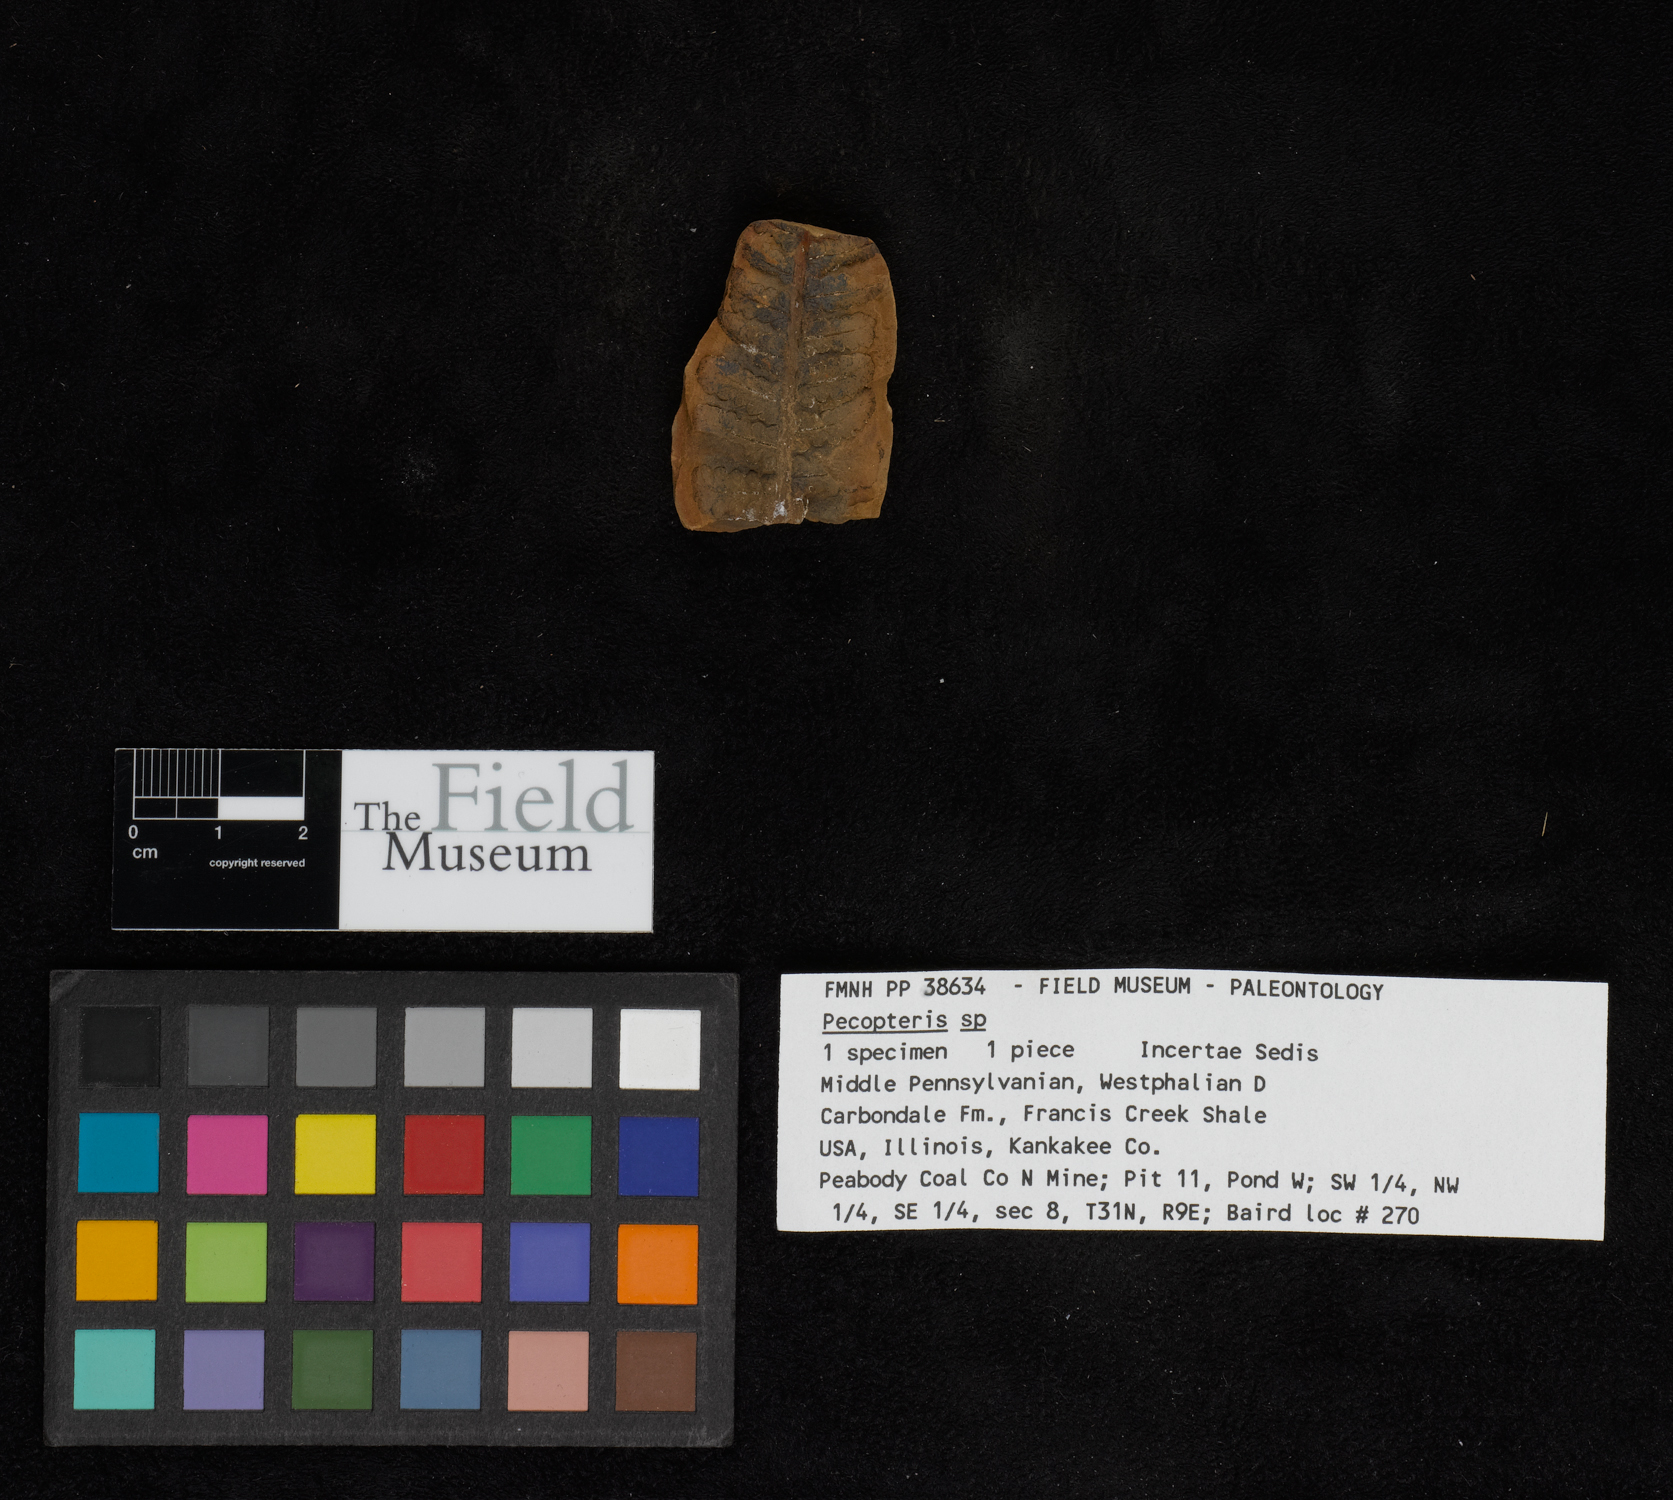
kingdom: Plantae
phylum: Tracheophyta
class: Polypodiopsida
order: Marattiales
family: Asterothecaceae
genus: Pecopteris
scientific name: Pecopteris
